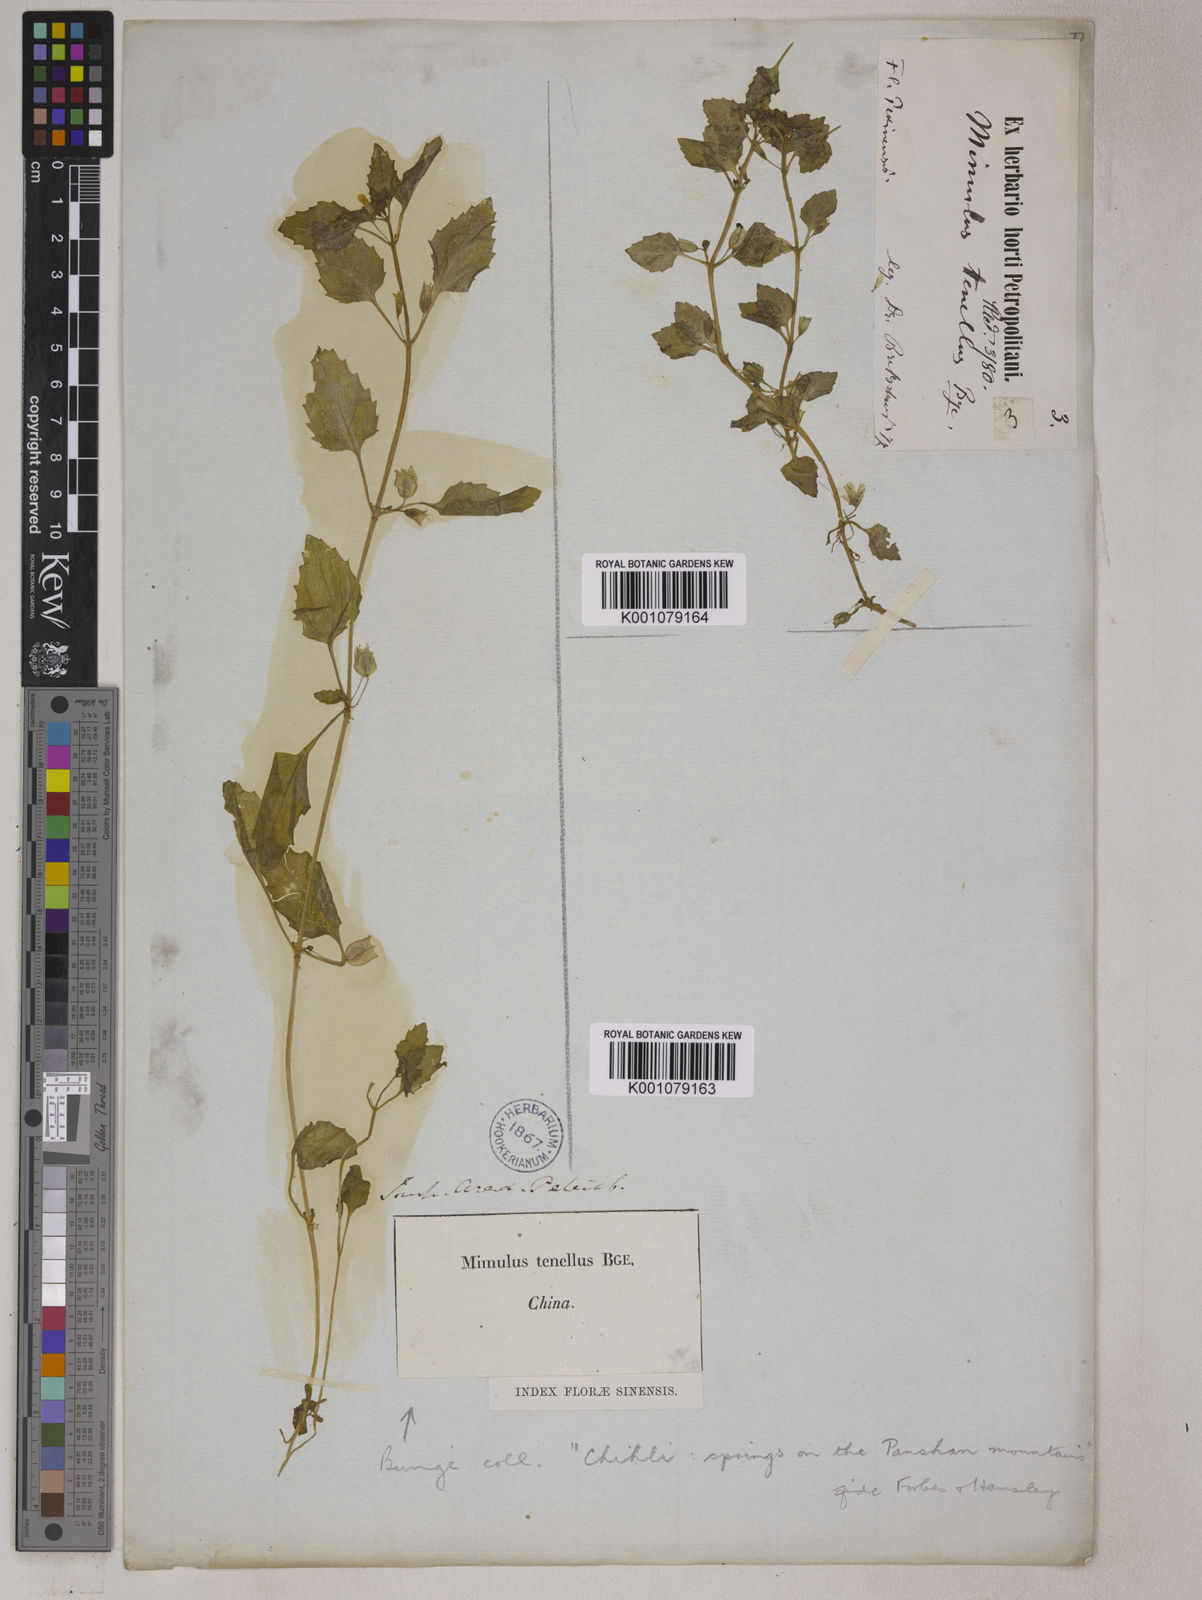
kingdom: Plantae
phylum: Tracheophyta
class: Magnoliopsida
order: Lamiales
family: Phrymaceae
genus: Erythranthe
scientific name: Erythranthe tenella
